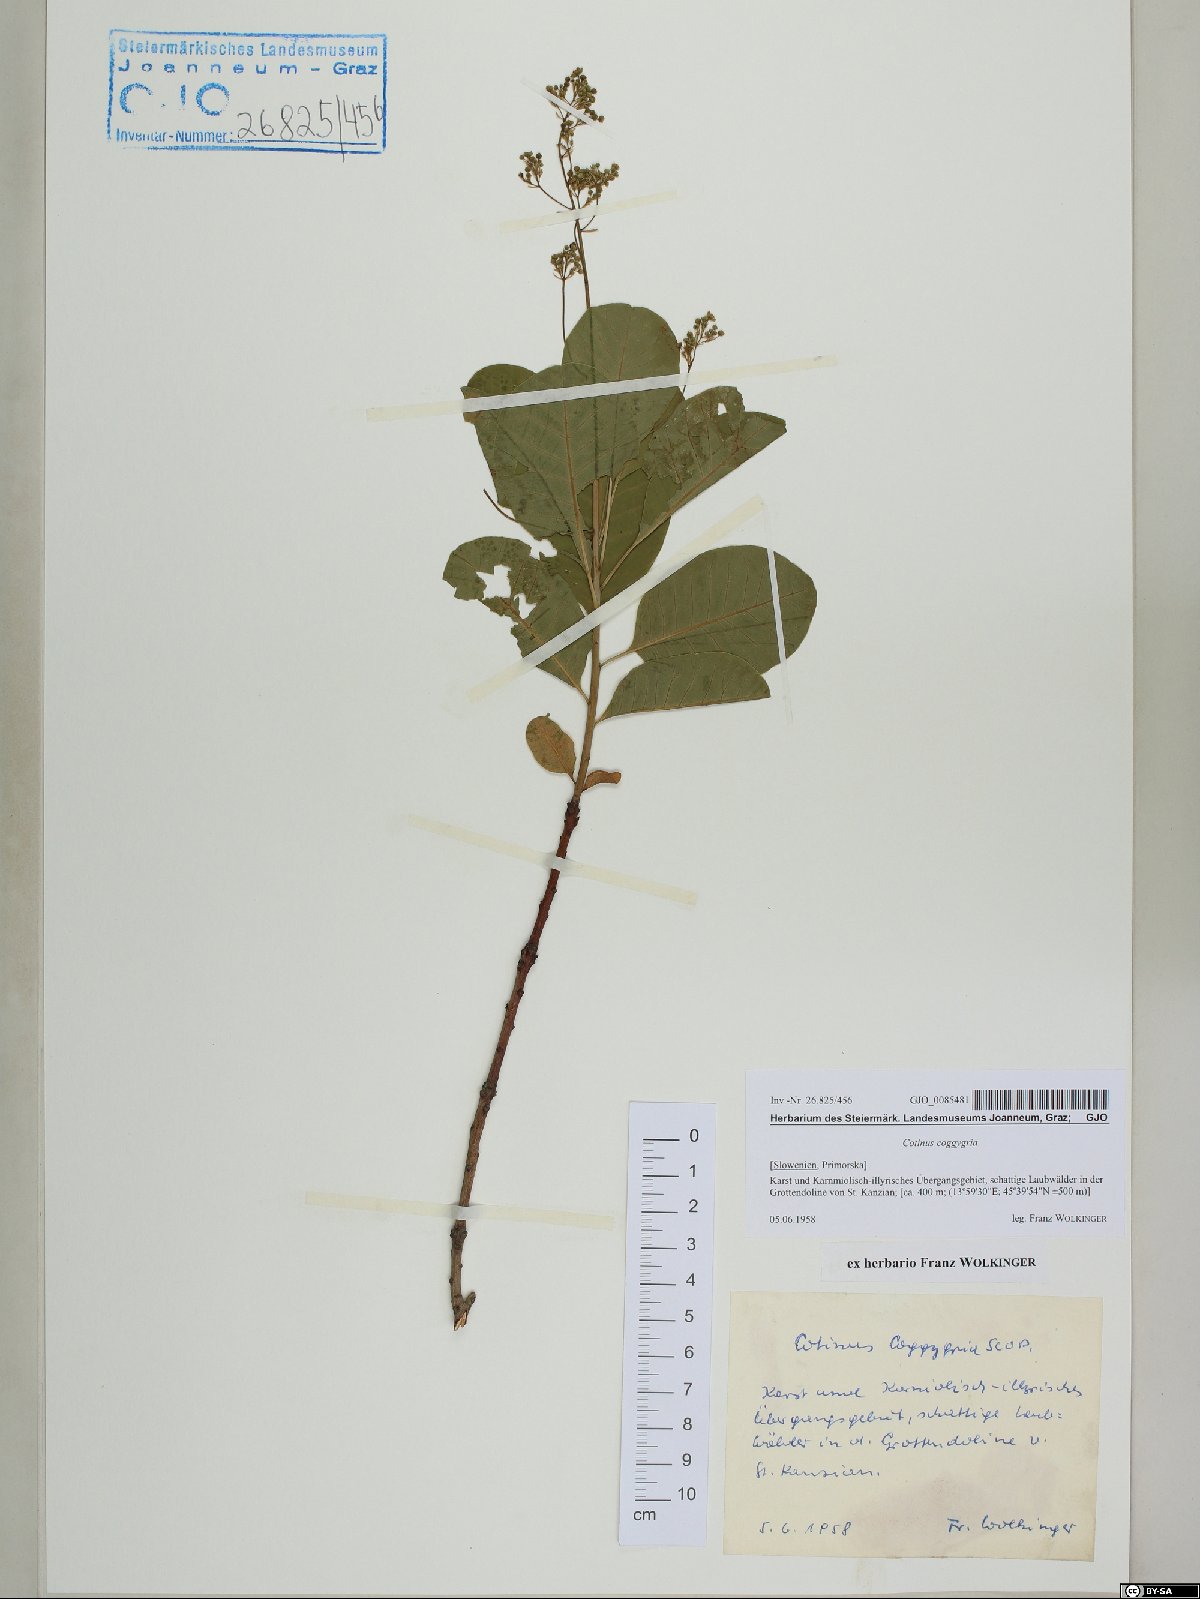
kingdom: Plantae
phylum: Tracheophyta
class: Magnoliopsida
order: Sapindales
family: Anacardiaceae
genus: Cotinus
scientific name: Cotinus coggygria
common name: Smoke-tree
